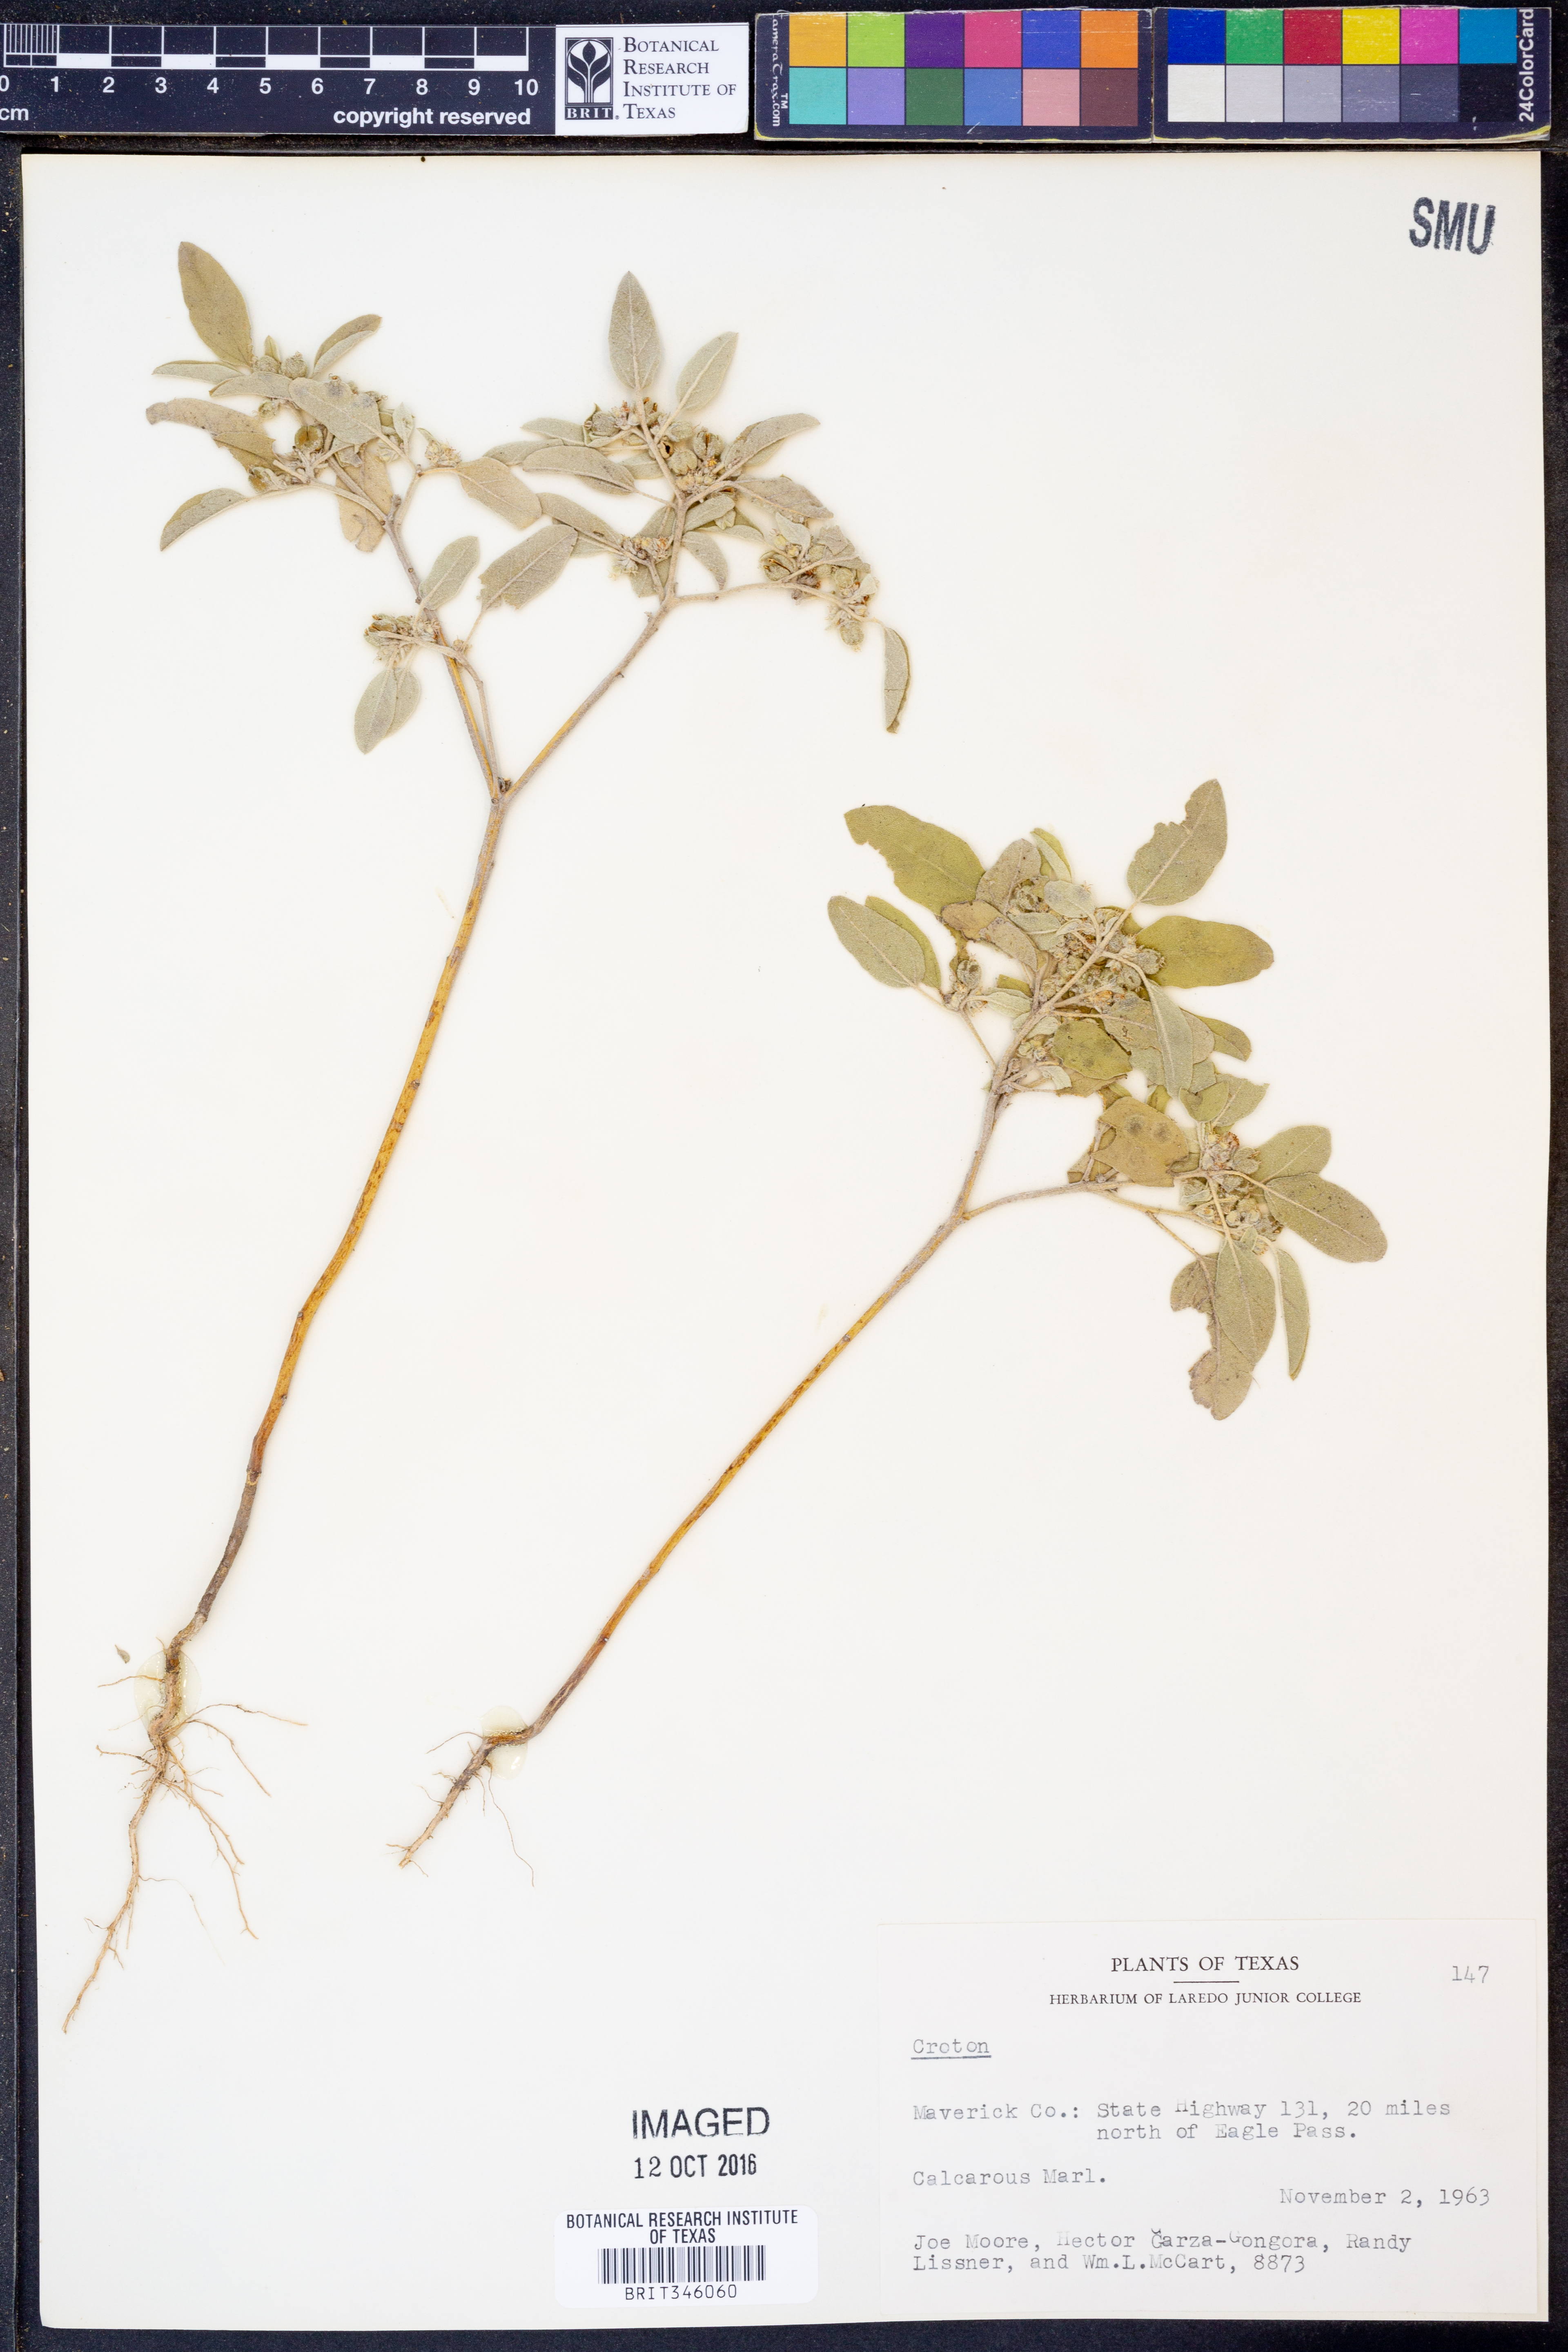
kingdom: Plantae
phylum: Tracheophyta
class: Magnoliopsida
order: Rosales
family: Rhamnaceae
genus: Colubrina
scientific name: Colubrina texensis
